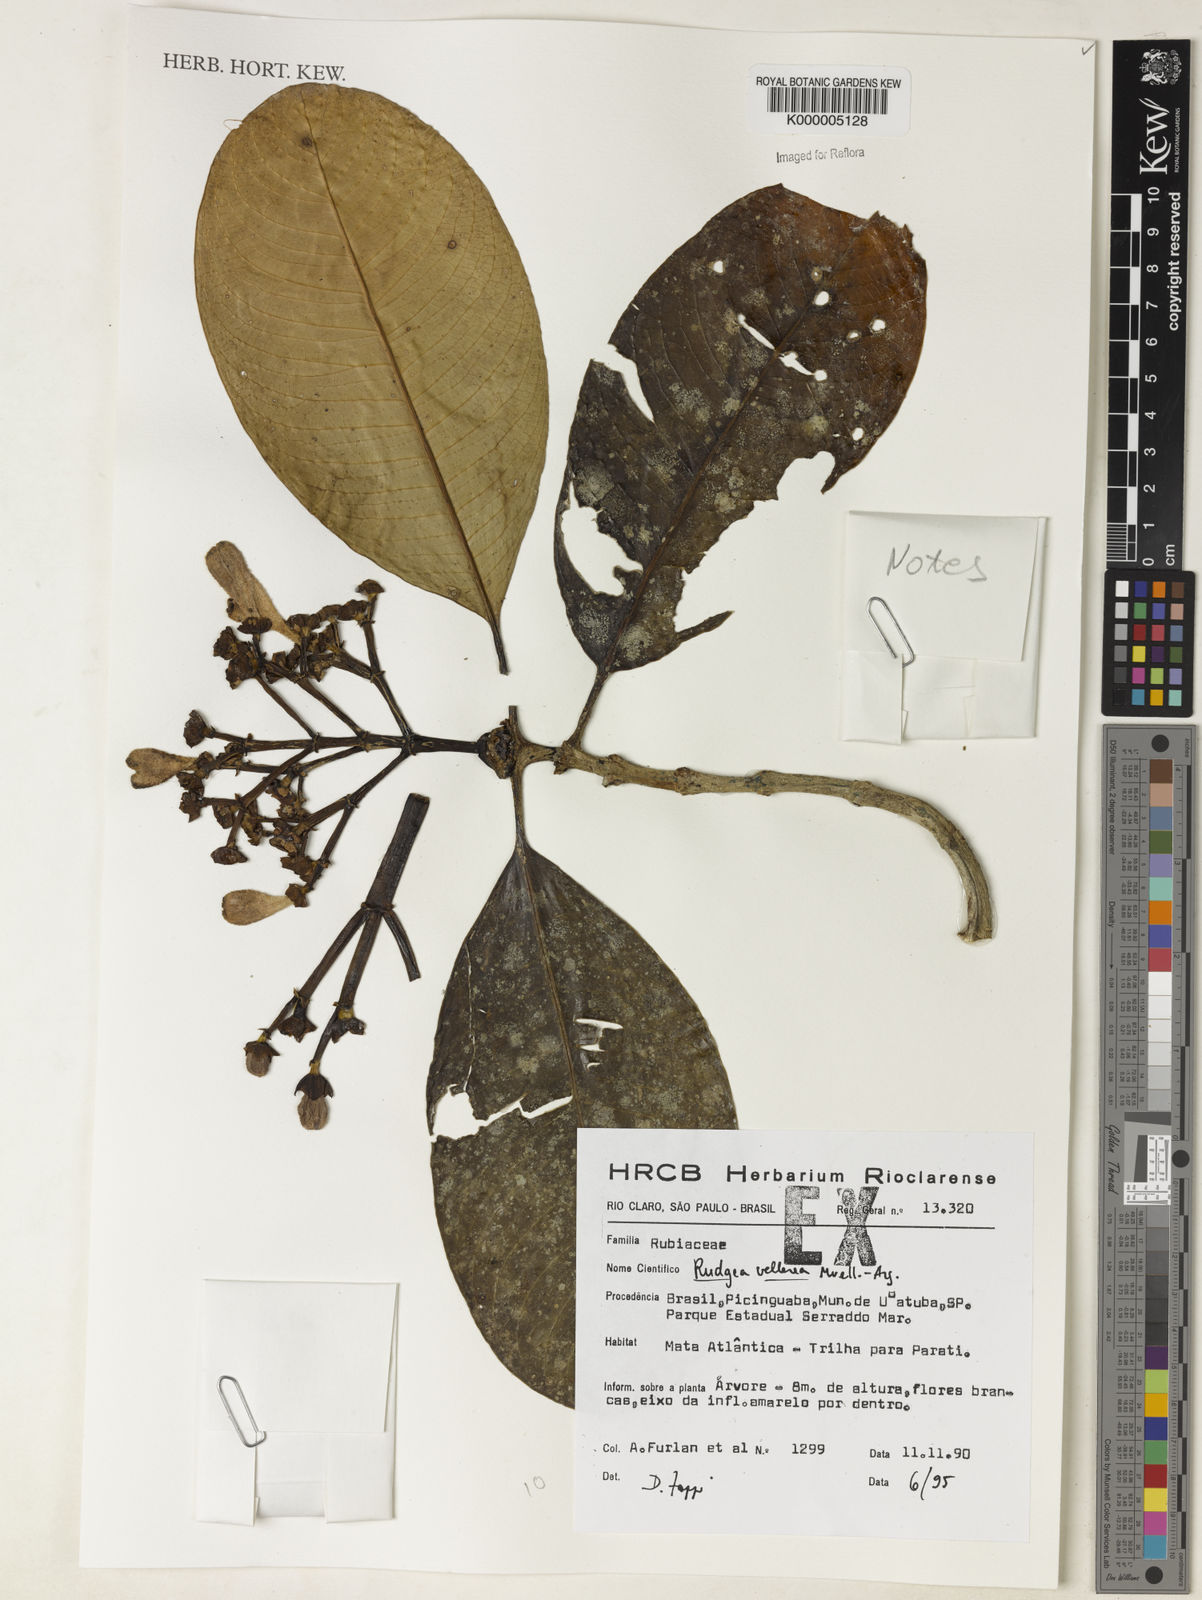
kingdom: Plantae
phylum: Tracheophyta
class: Magnoliopsida
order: Gentianales
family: Rubiaceae
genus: Rudgea
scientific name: Rudgea vellerea
